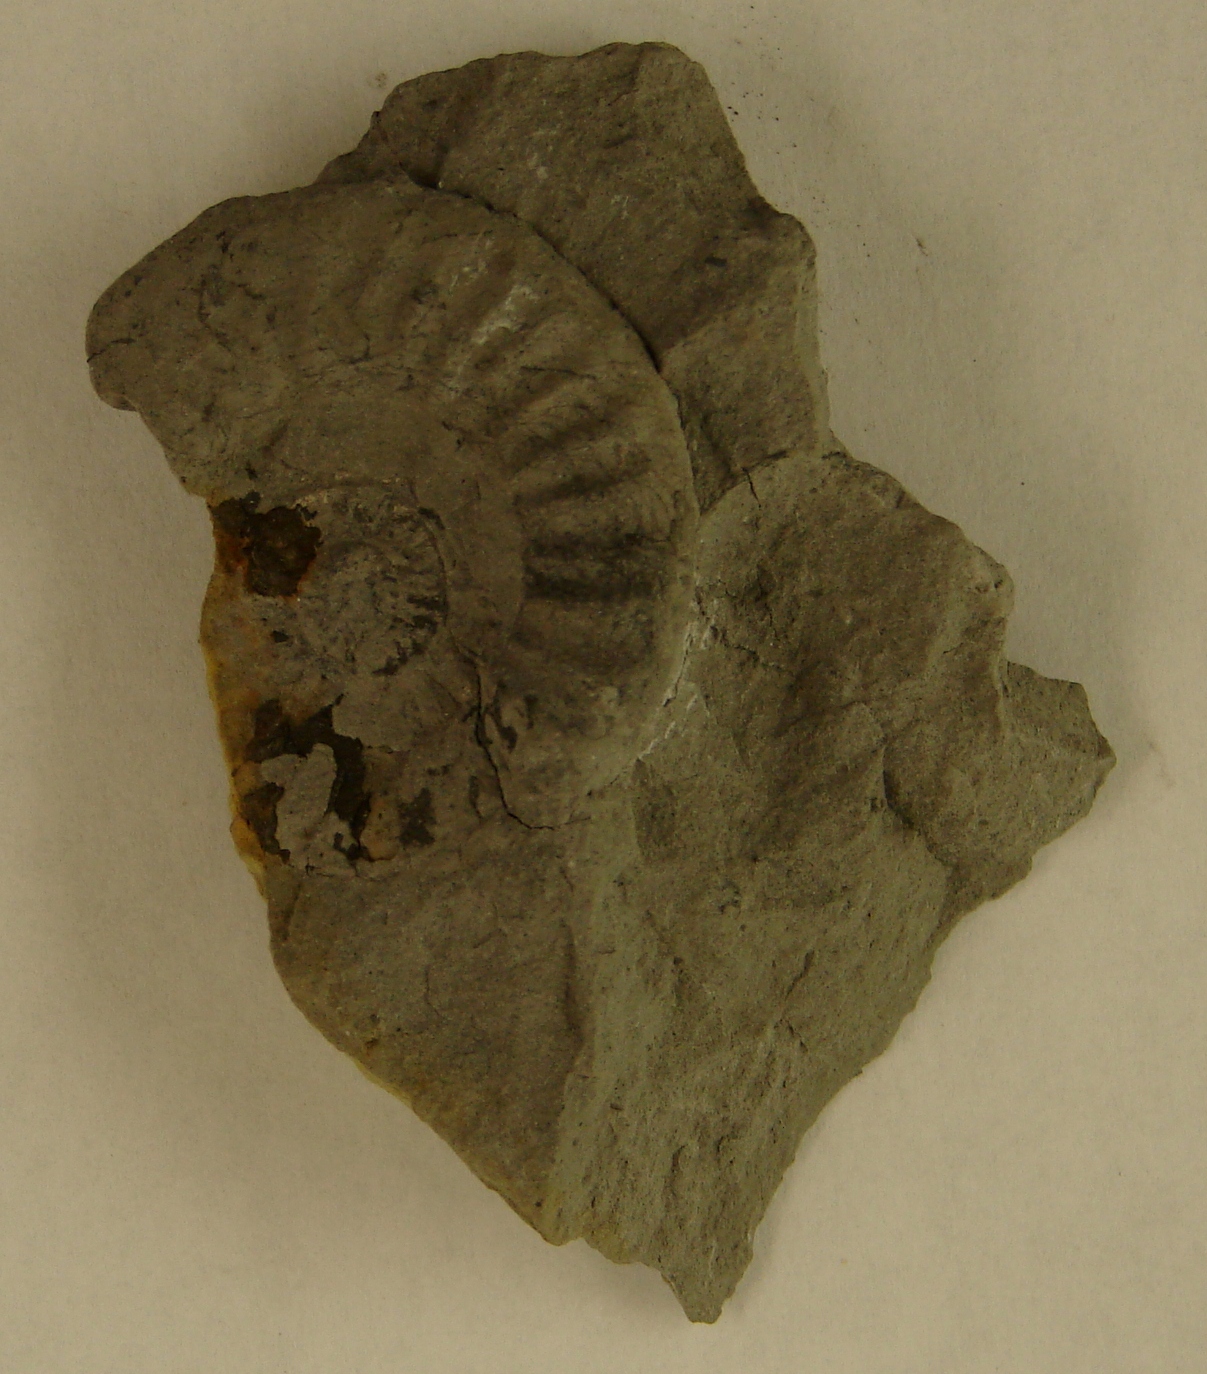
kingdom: Animalia
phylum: Mollusca
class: Cephalopoda
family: Psiloceratidae
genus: Psiloceras
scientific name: Psiloceras calliphylloides
